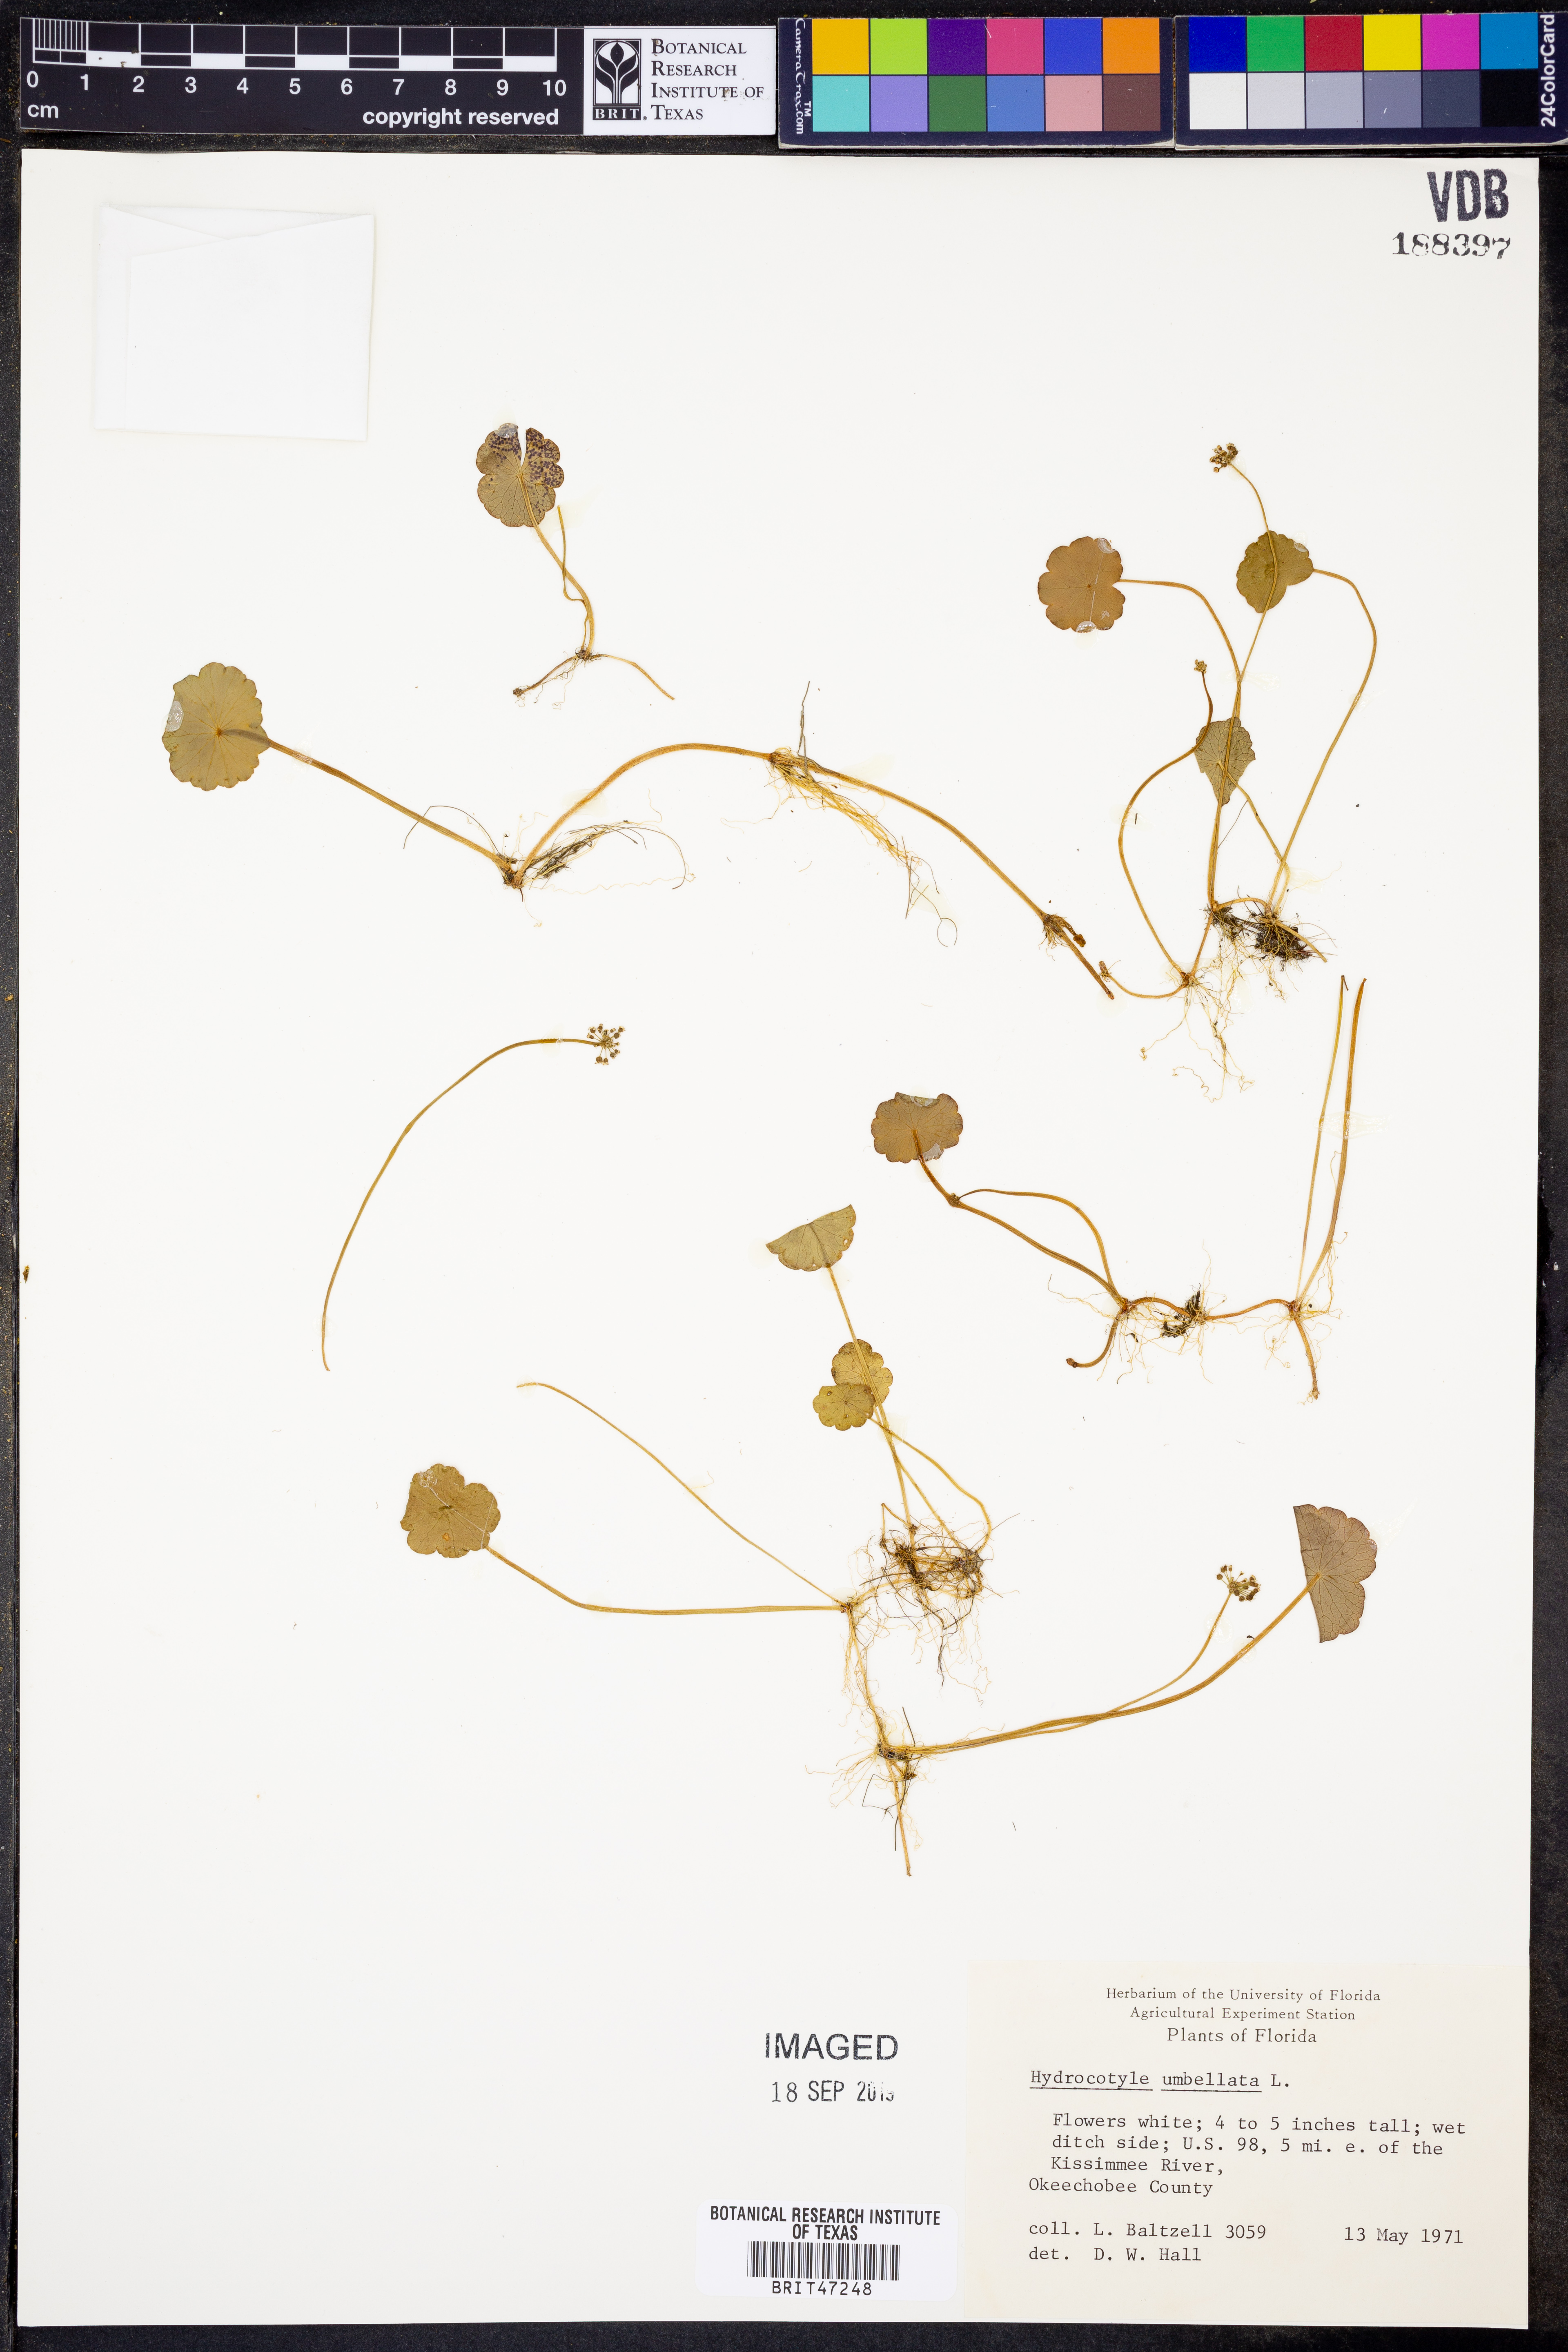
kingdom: Plantae
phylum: Tracheophyta
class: Magnoliopsida
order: Apiales
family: Araliaceae
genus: Hydrocotyle
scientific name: Hydrocotyle umbellata
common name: Water pennywort
